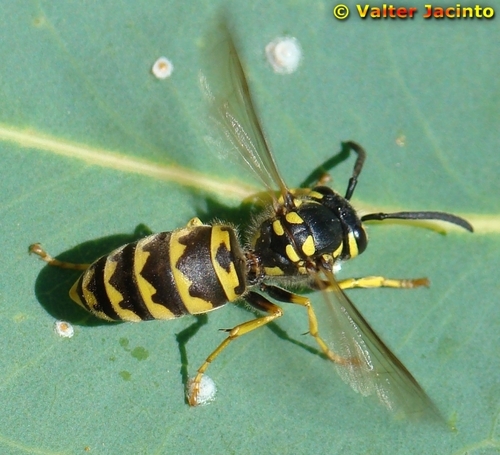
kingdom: Animalia
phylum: Arthropoda
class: Insecta
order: Hymenoptera
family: Vespidae
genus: Vespula
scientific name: Vespula germanica
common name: German wasp
